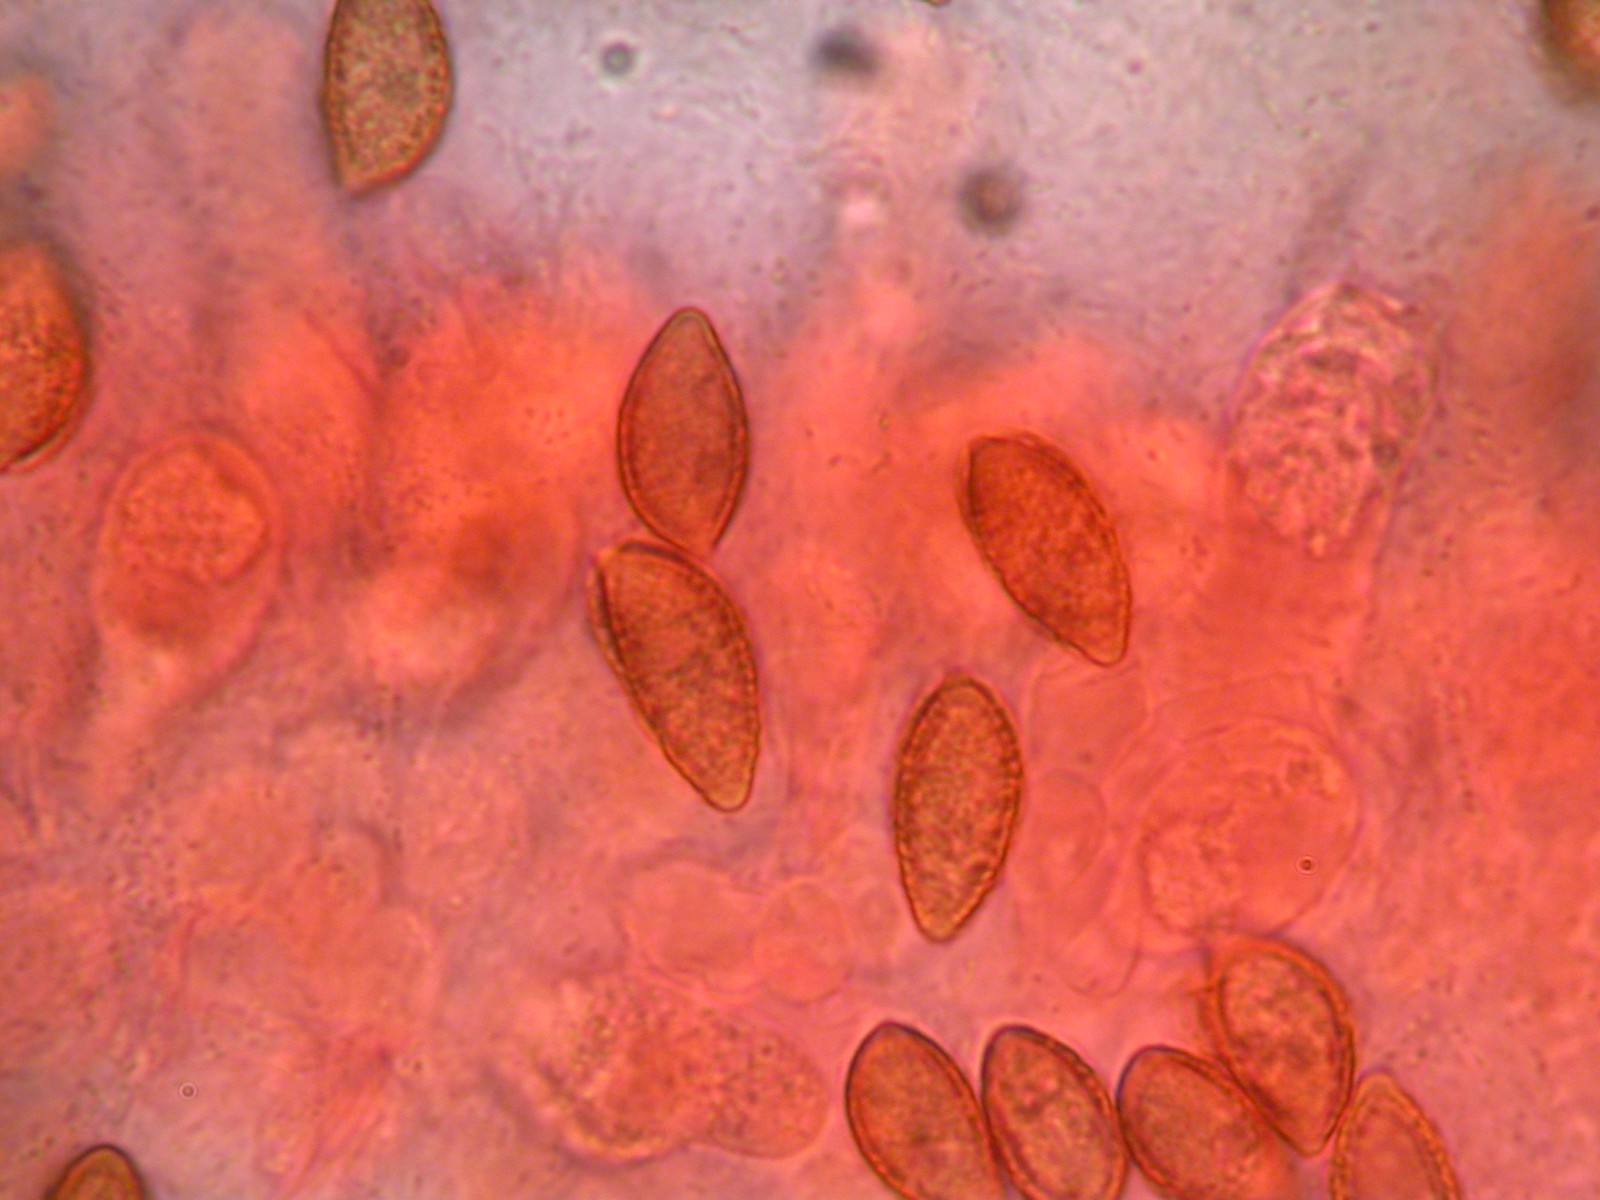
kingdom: Fungi
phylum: Basidiomycota
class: Agaricomycetes
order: Agaricales
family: Hymenogastraceae
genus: Hebeloma
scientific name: Hebeloma aestivale
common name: sommer-tåreblad
